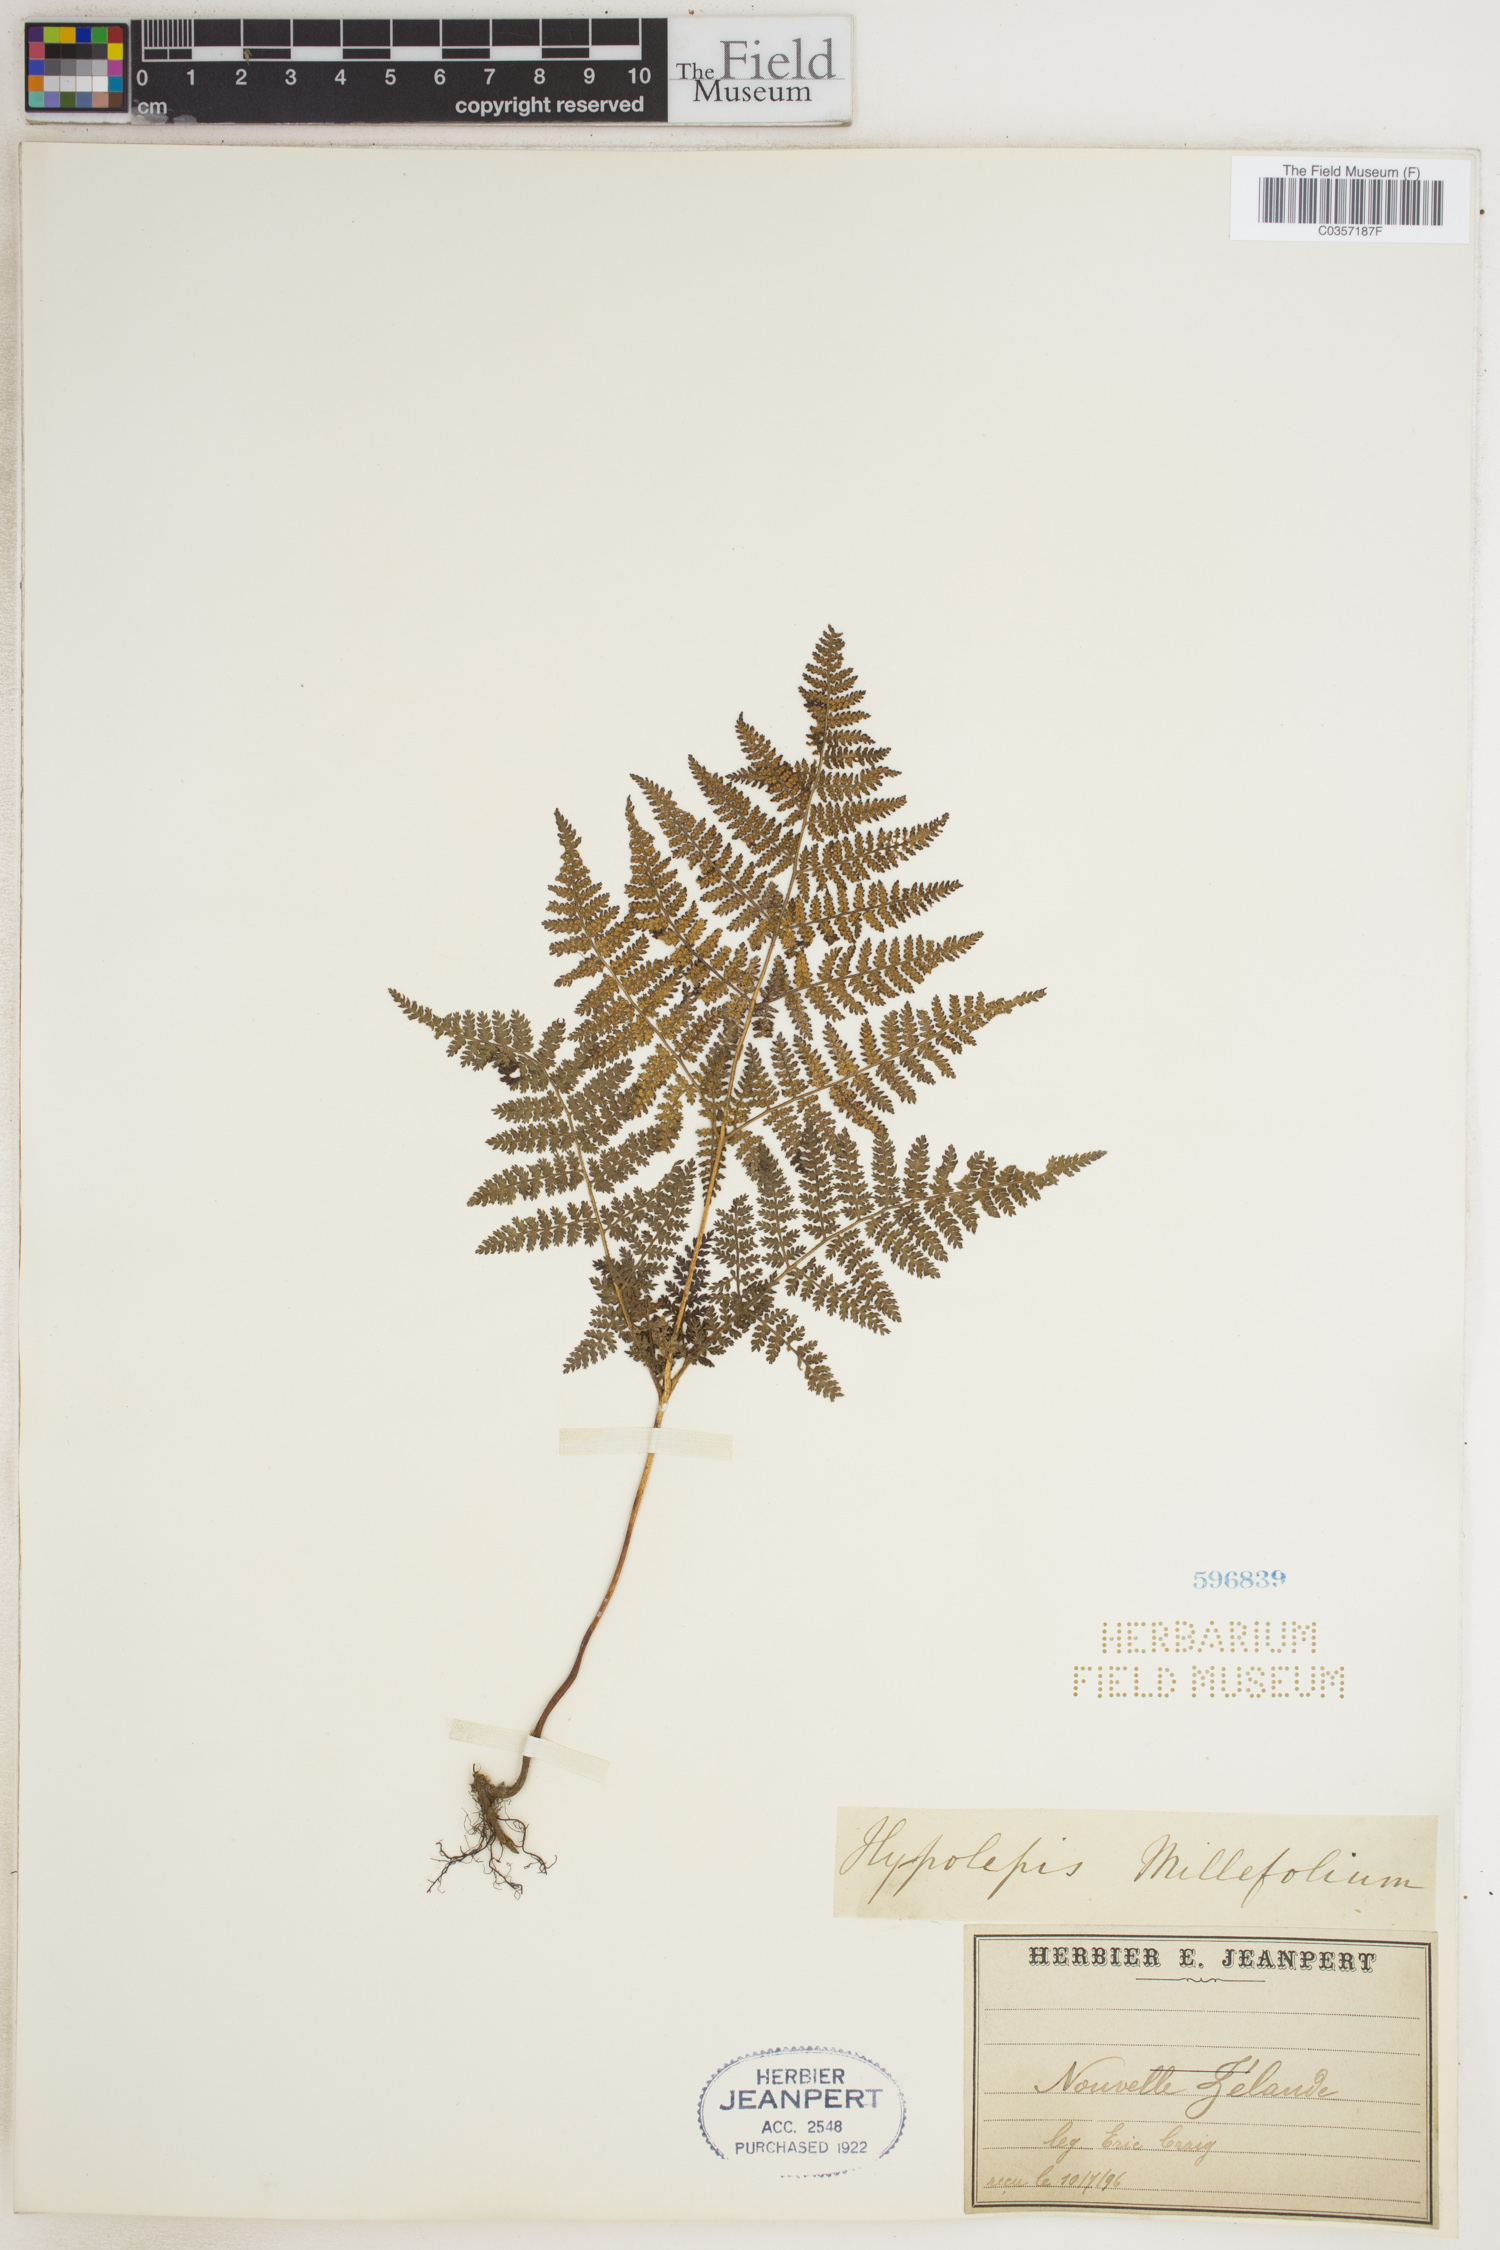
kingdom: Plantae
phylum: Tracheophyta
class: Polypodiopsida
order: Polypodiales
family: Dennstaedtiaceae
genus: Hypolepis
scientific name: Hypolepis millefolium
